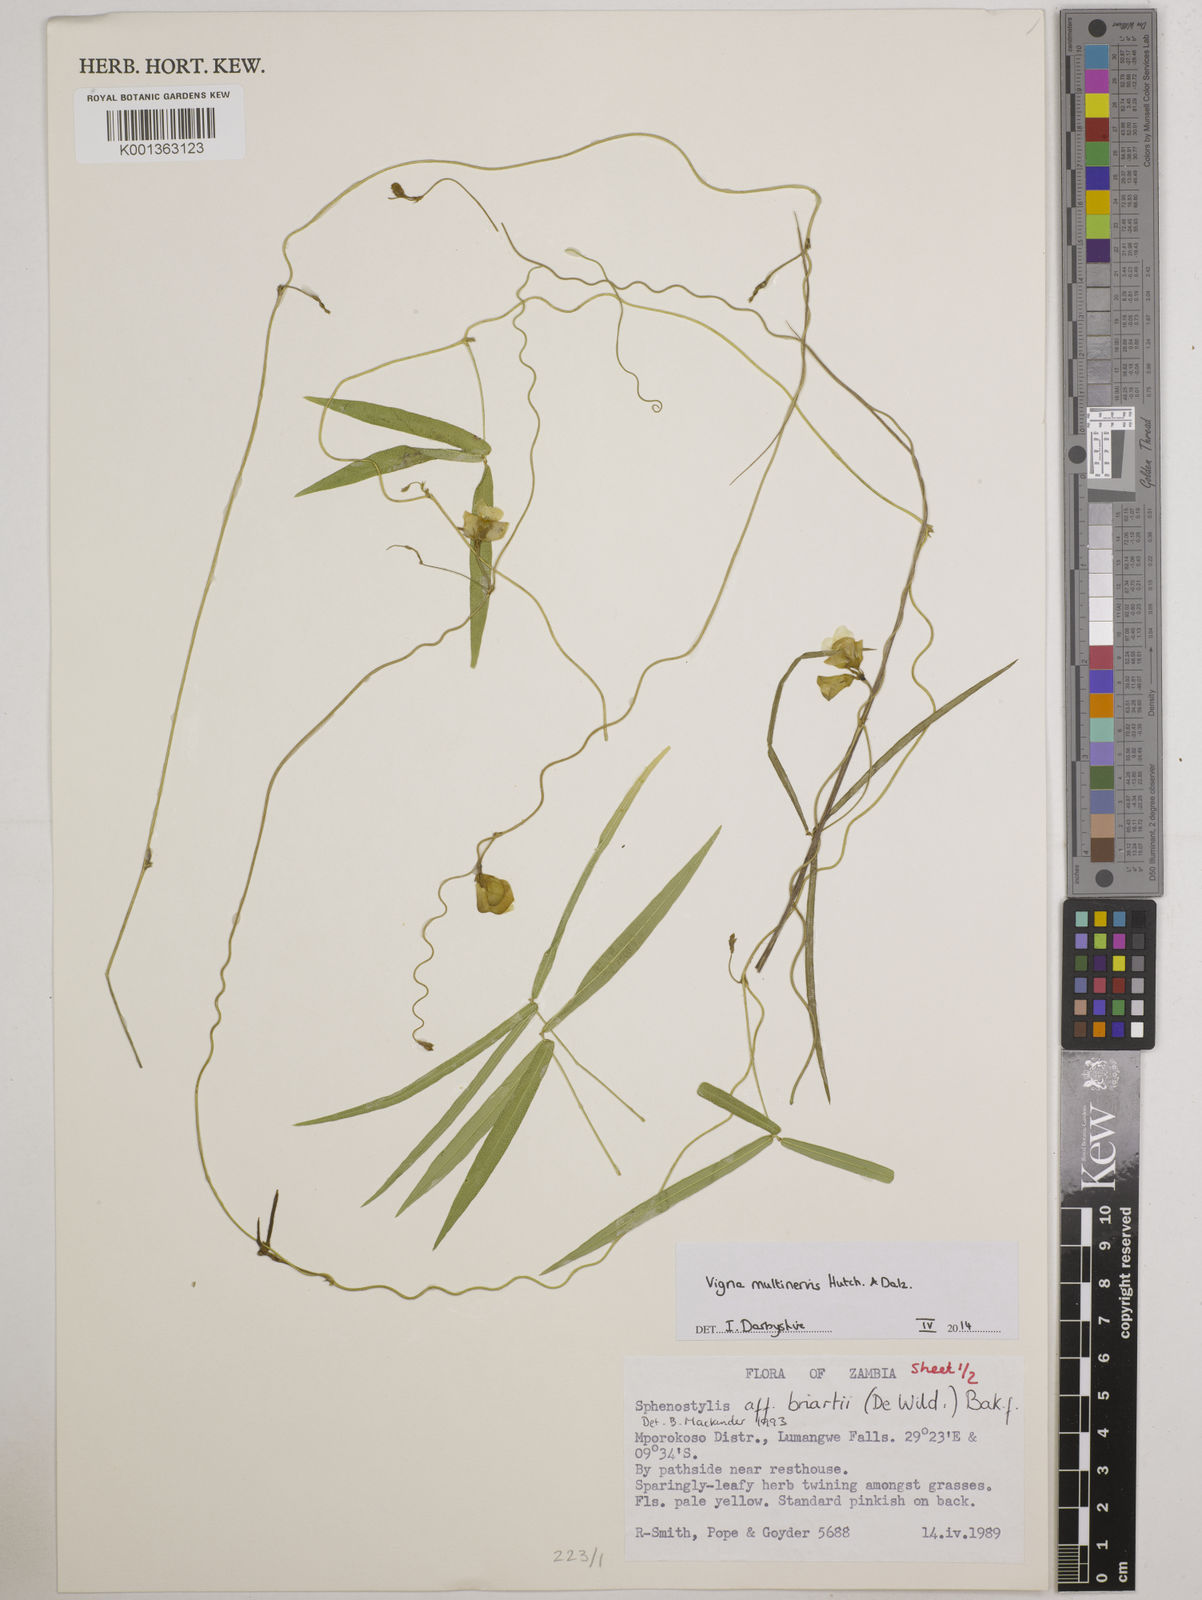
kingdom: Plantae
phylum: Tracheophyta
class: Magnoliopsida
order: Fabales
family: Fabaceae
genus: Vigna
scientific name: Vigna multinervis
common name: Fula-pulaar
